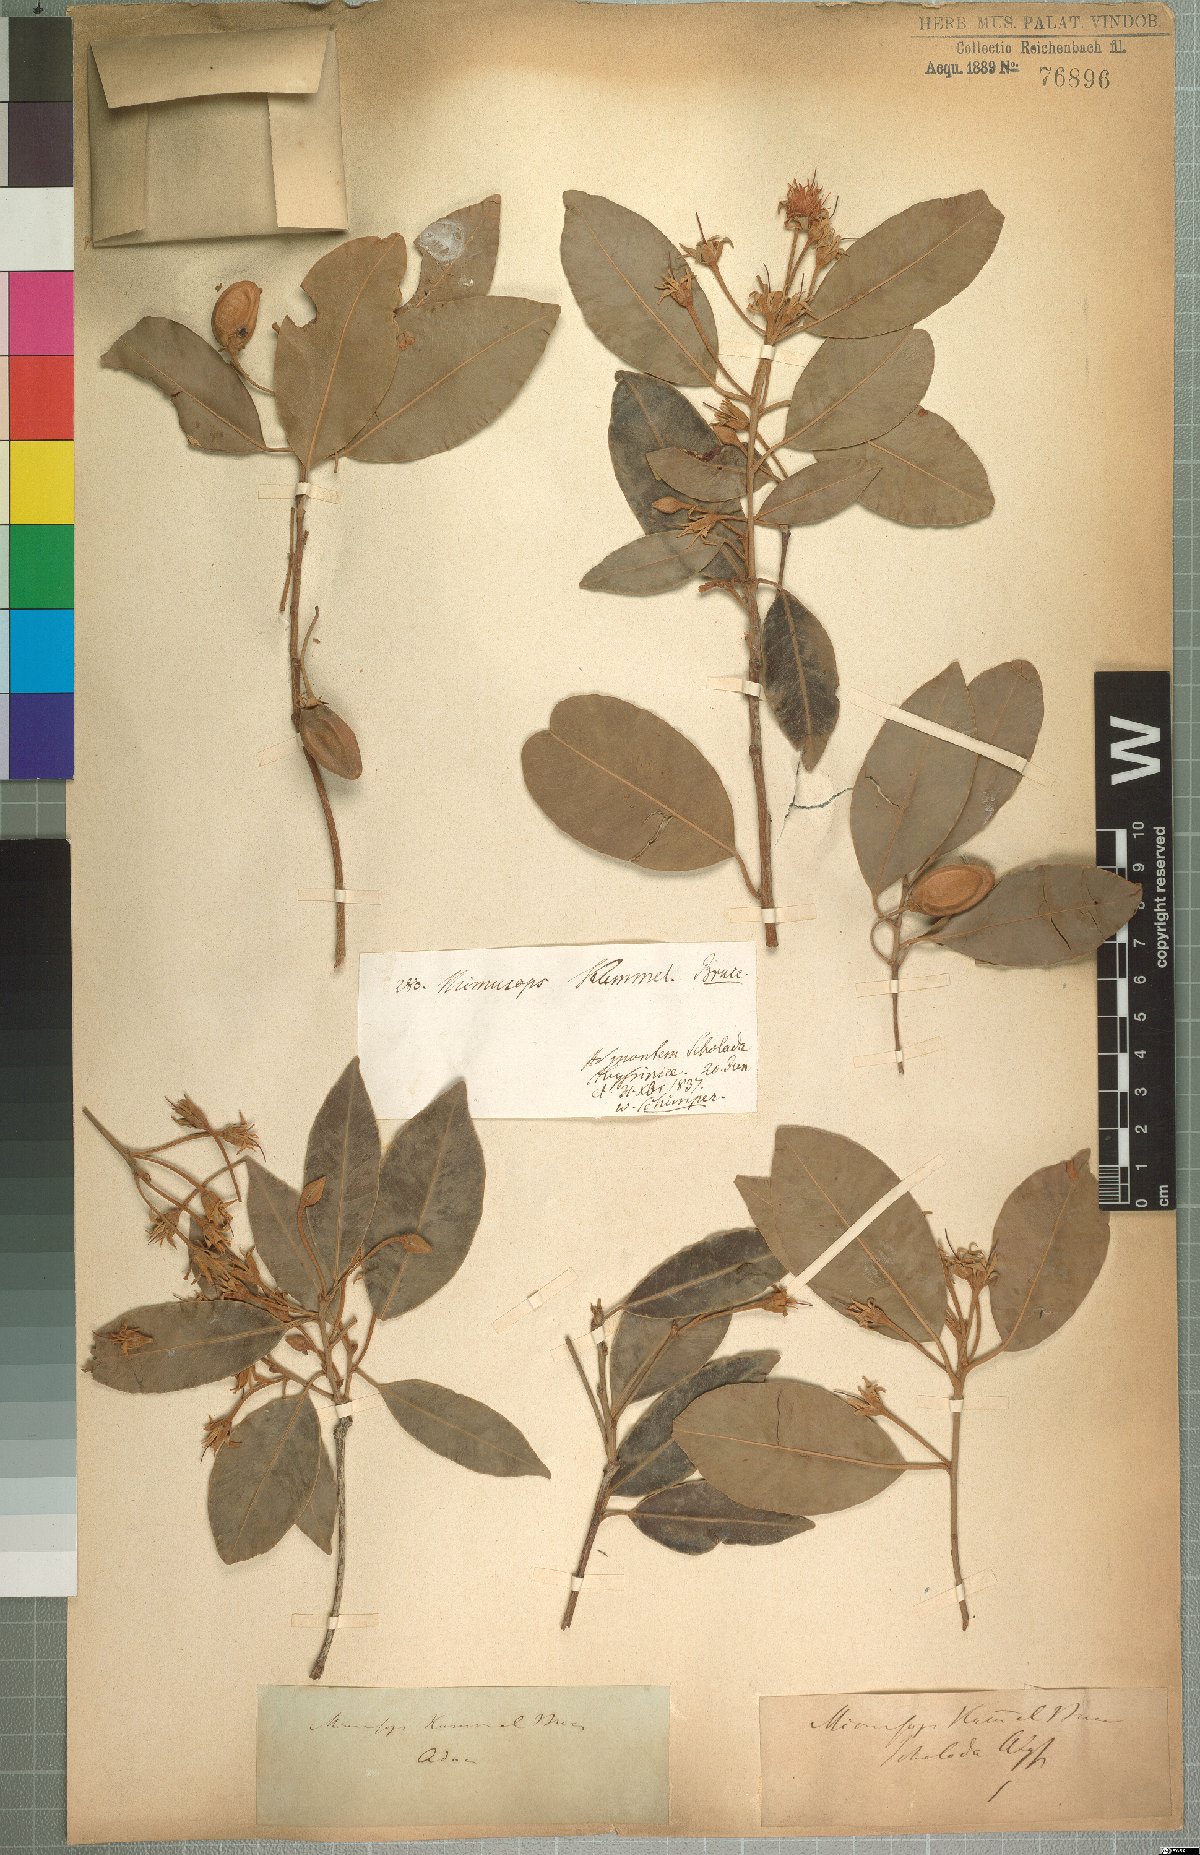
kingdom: Plantae
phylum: Tracheophyta
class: Magnoliopsida
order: Ericales
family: Sapotaceae
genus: Mimusops
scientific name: Mimusops kummel
